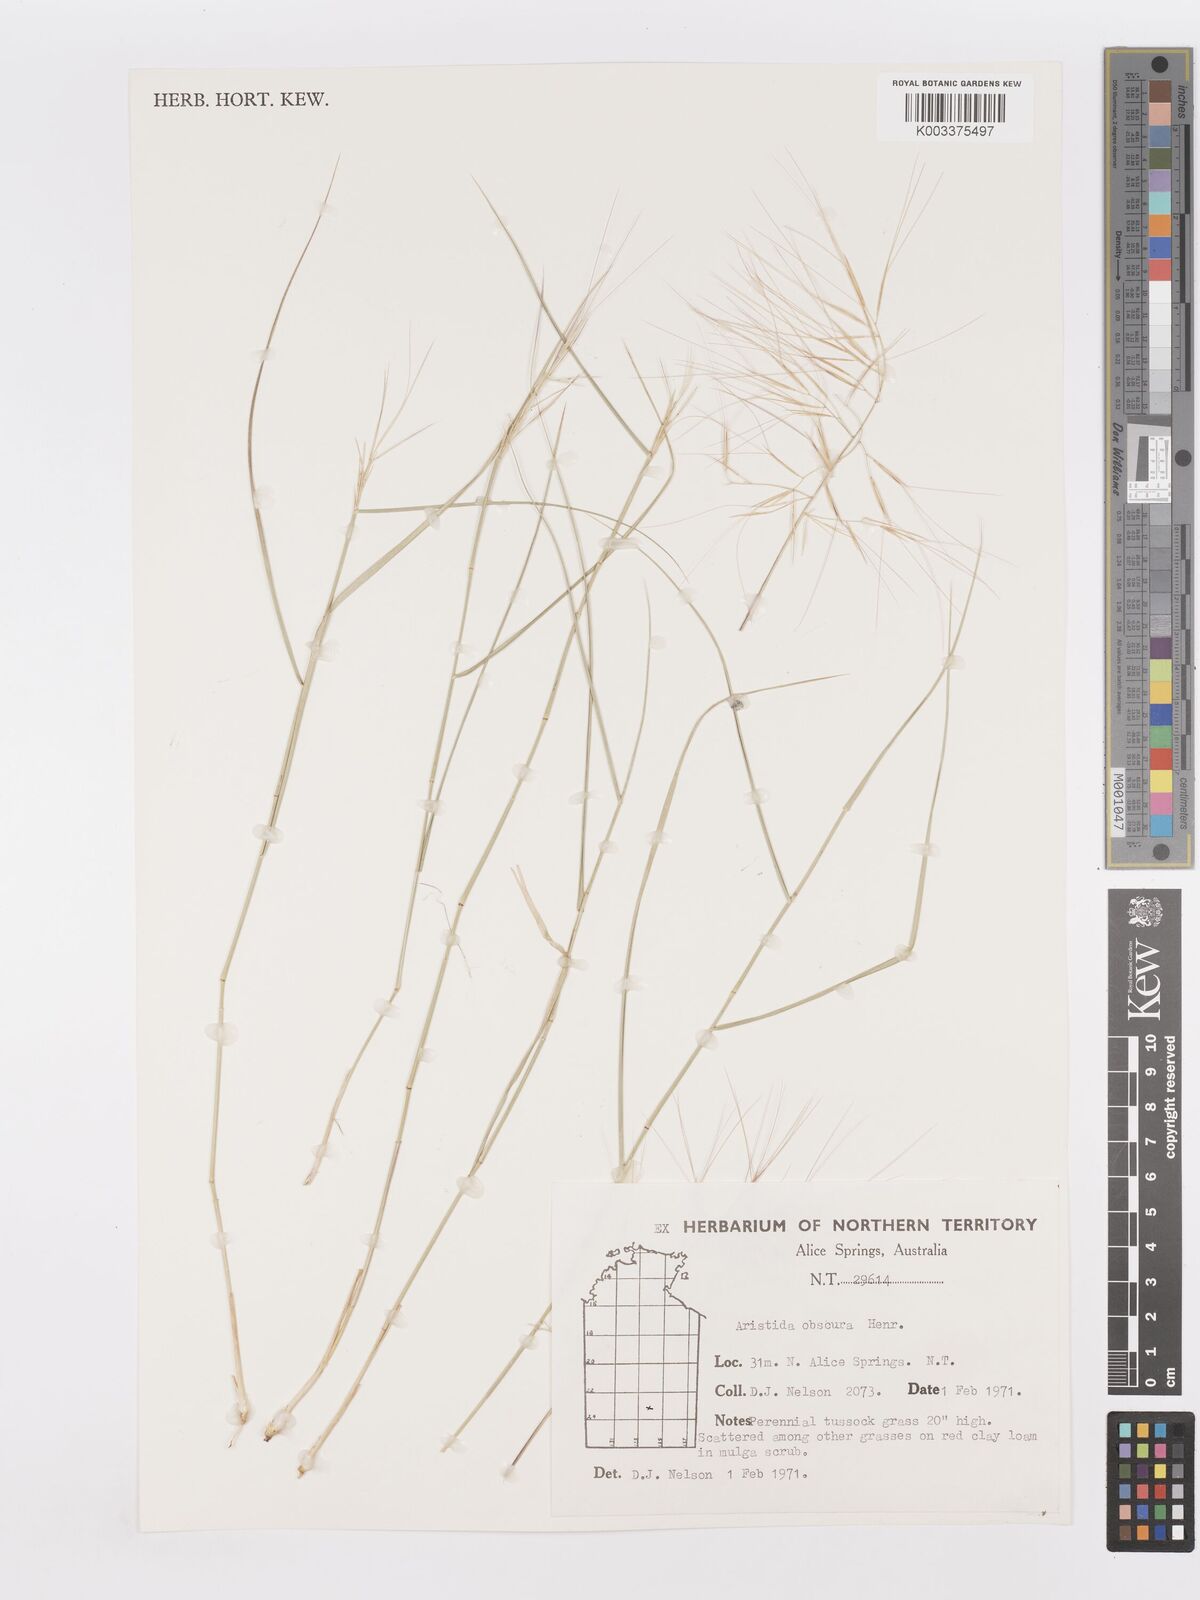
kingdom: Plantae
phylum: Tracheophyta
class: Liliopsida
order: Poales
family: Poaceae
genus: Aristida
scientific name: Aristida obscura
